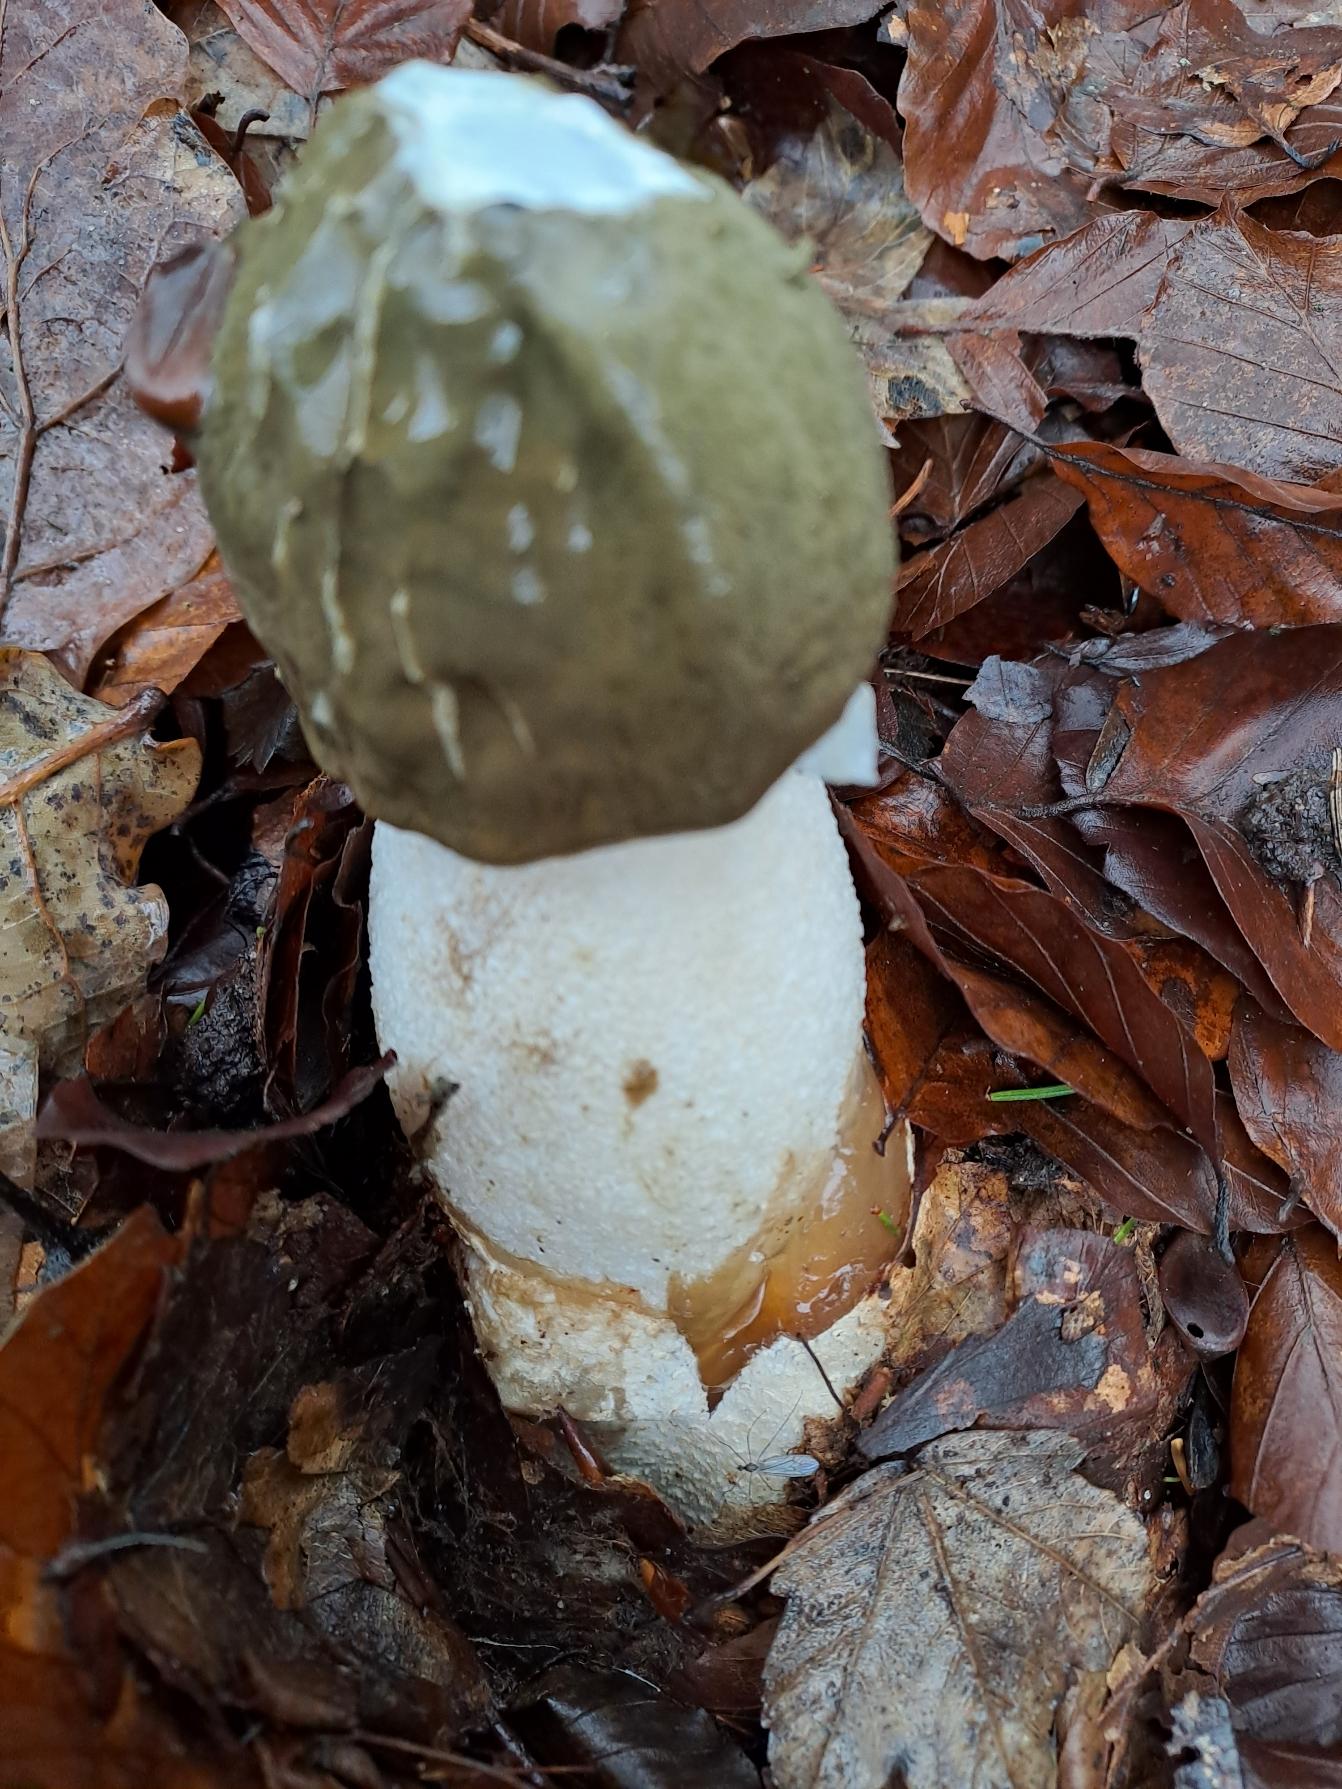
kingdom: Fungi
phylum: Basidiomycota
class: Agaricomycetes
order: Phallales
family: Phallaceae
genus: Phallus
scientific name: Phallus impudicus
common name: Almindelig stinksvamp
